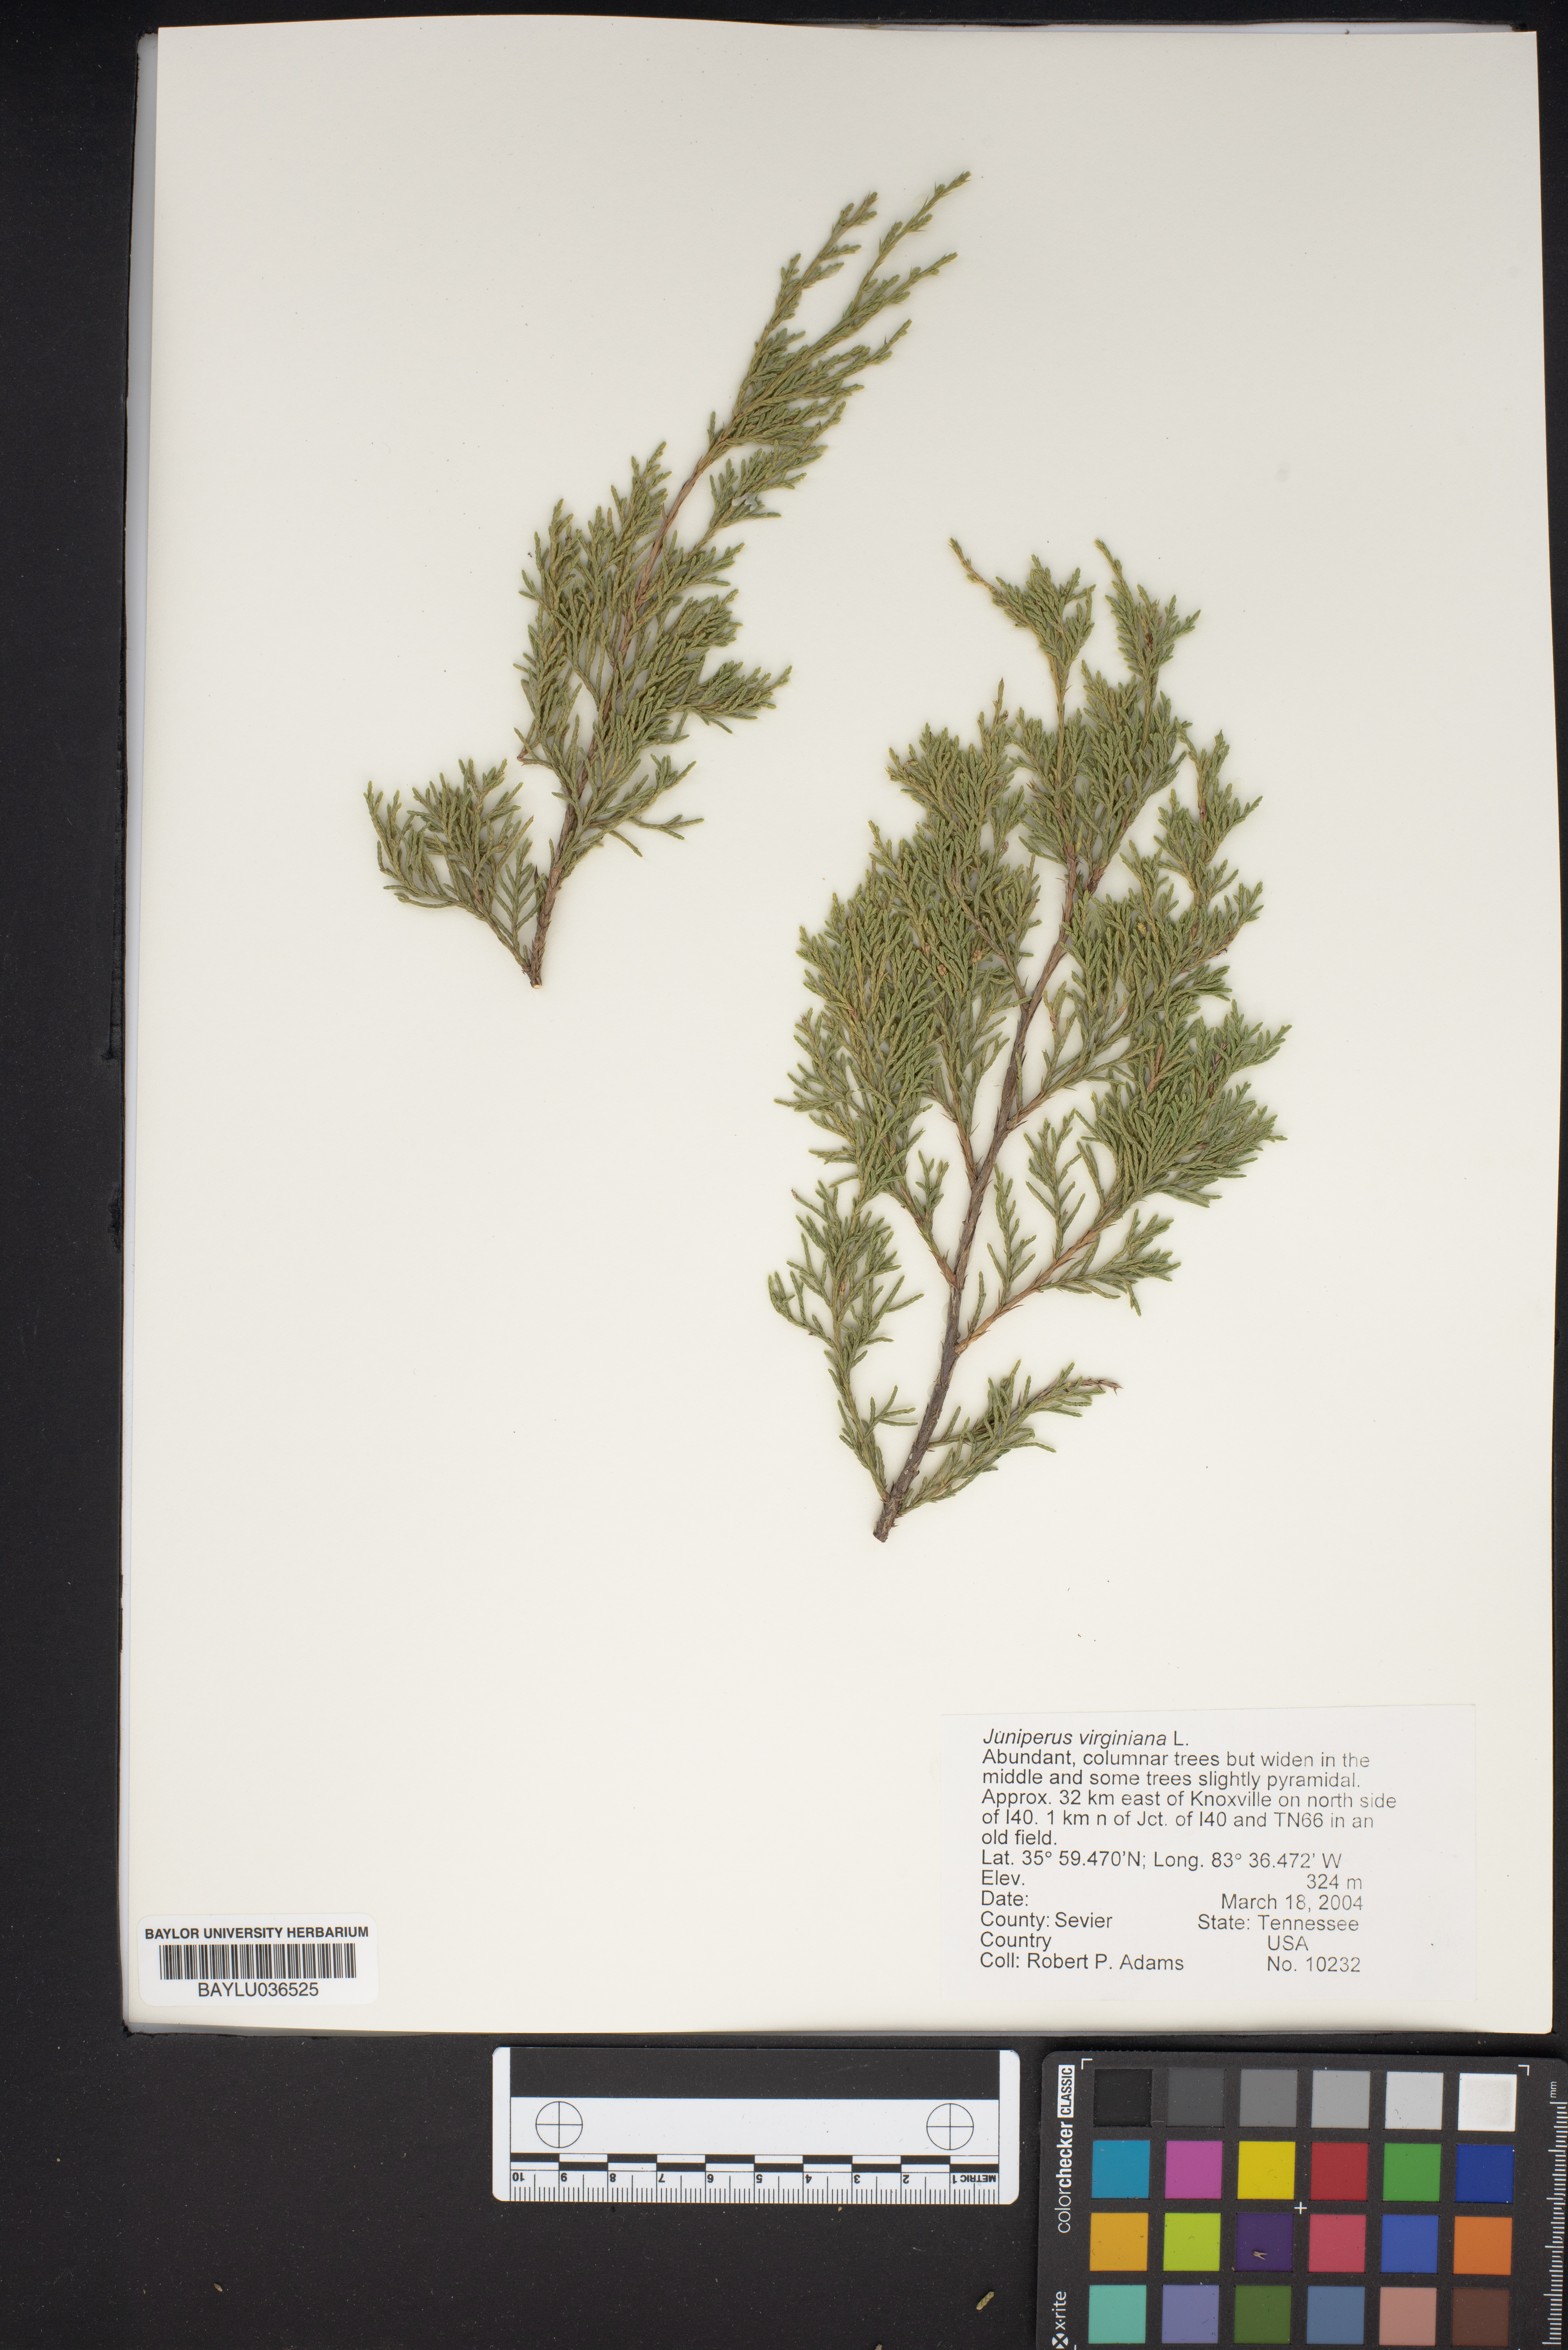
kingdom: Plantae
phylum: Tracheophyta
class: Pinopsida
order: Pinales
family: Cupressaceae
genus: Juniperus
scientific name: Juniperus virginiana
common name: Red juniper
